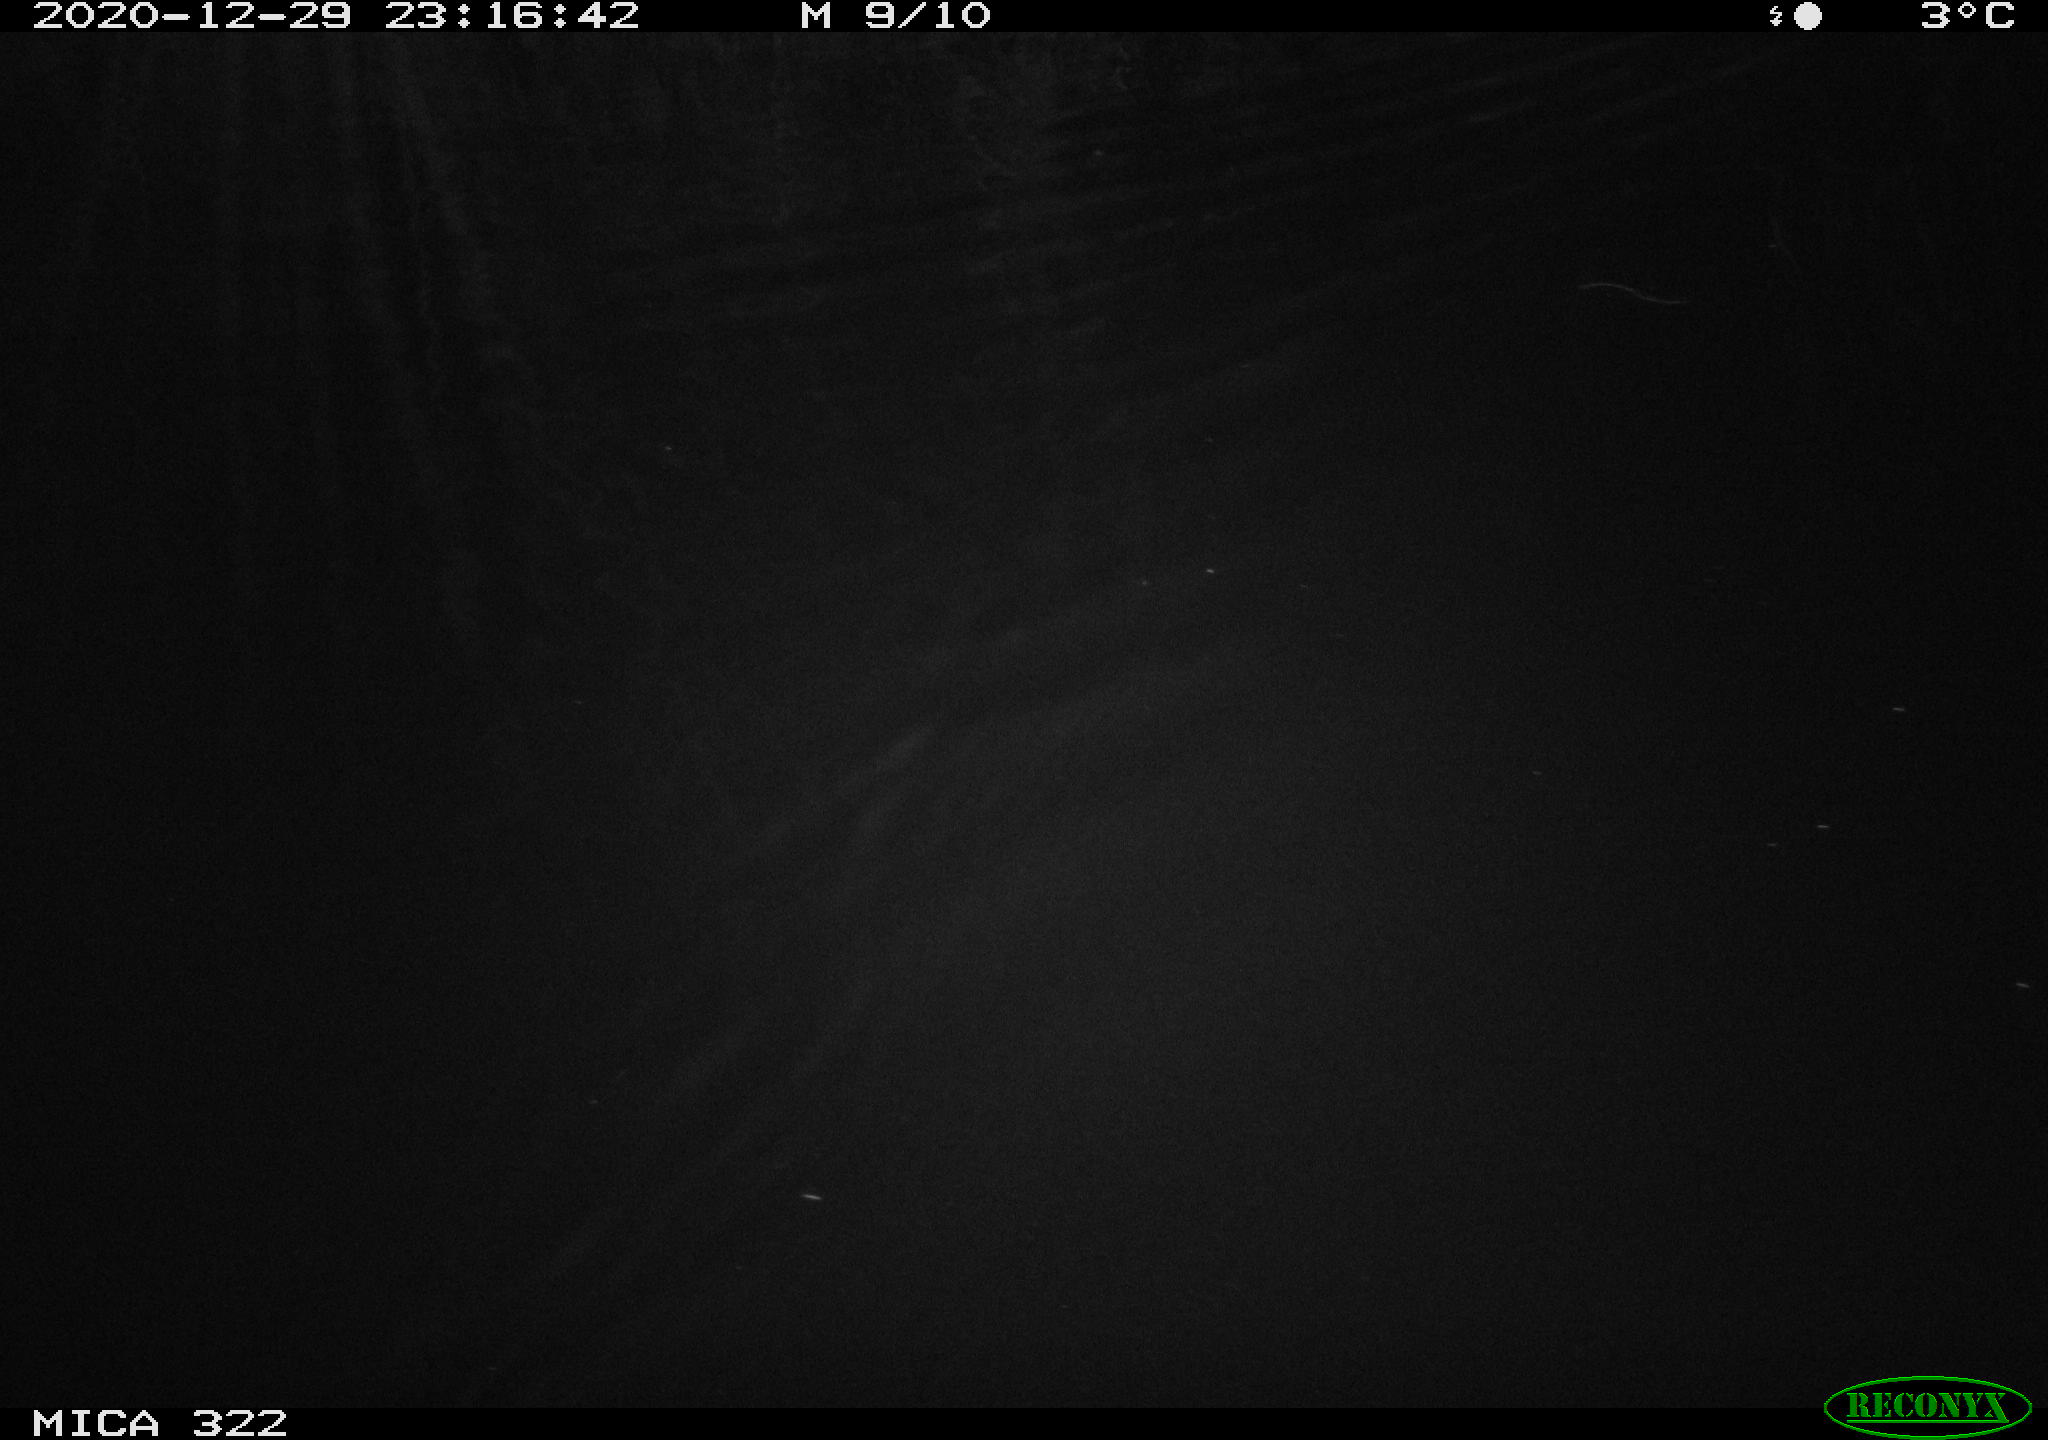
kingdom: Animalia
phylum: Chordata
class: Mammalia
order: Rodentia
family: Muridae
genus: Rattus
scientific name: Rattus norvegicus
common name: Brown rat
